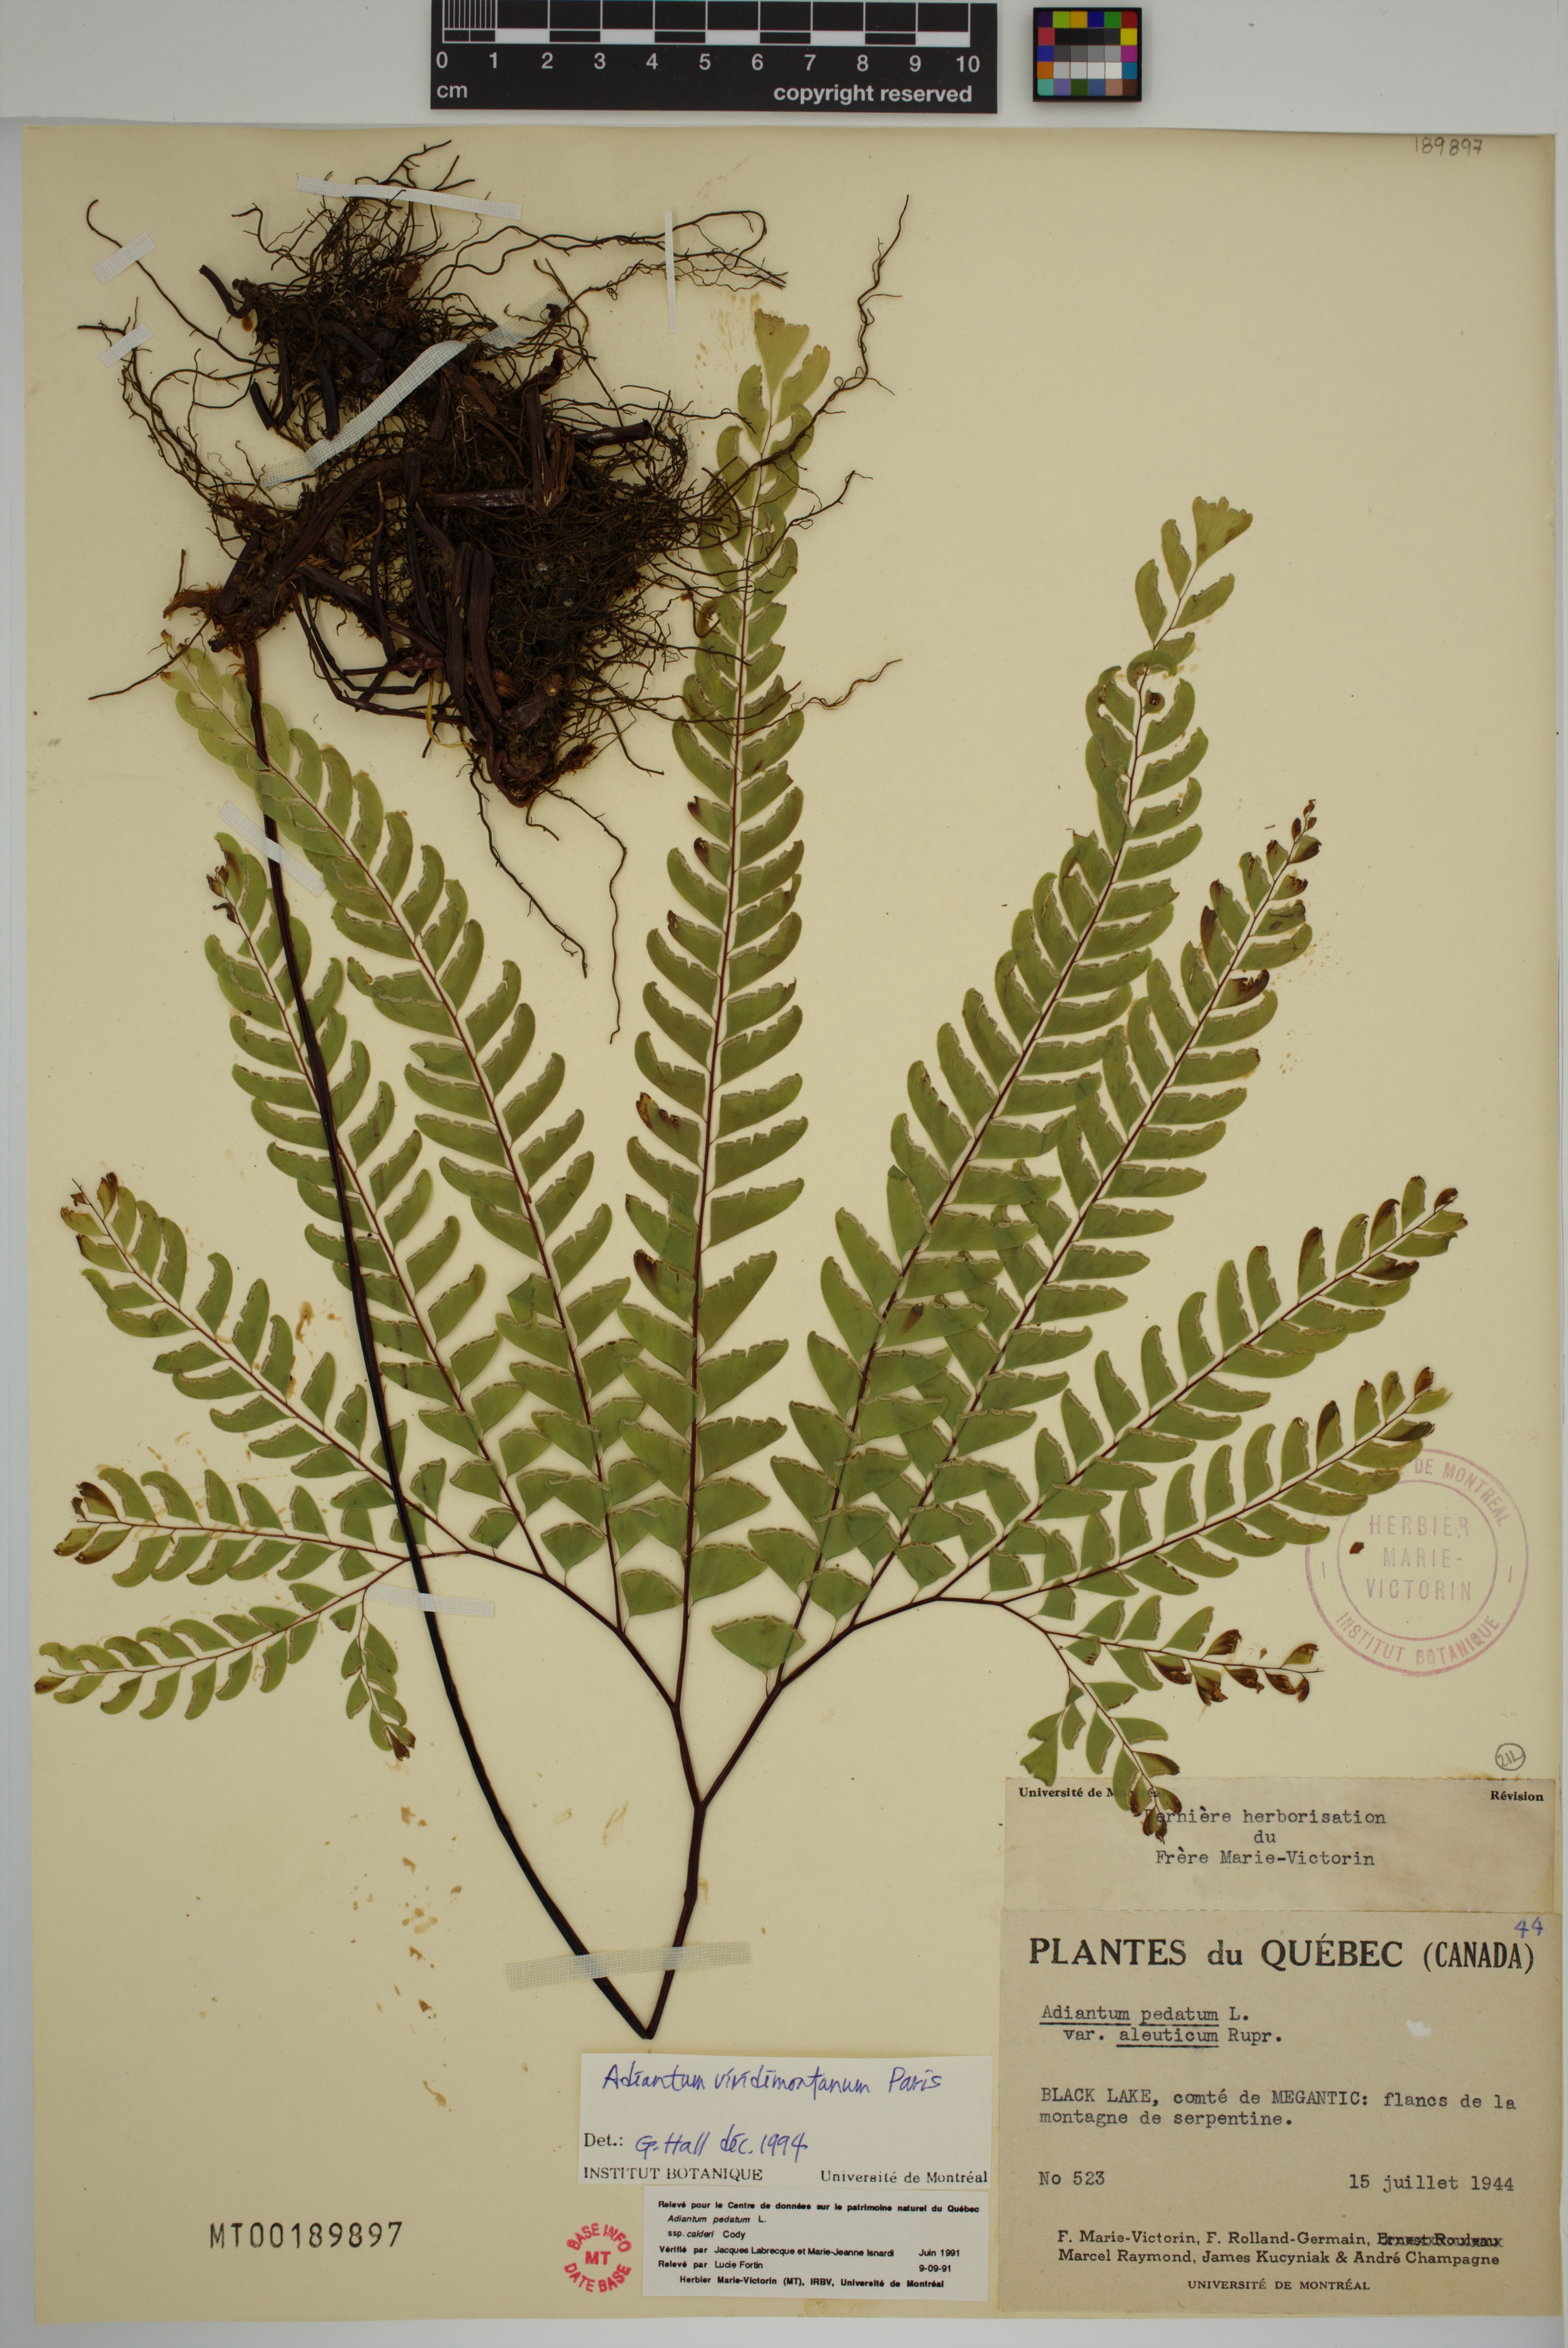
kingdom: Plantae
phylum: Tracheophyta
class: Polypodiopsida
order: Polypodiales
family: Pteridaceae
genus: Adiantum
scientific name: Adiantum viridimontanum
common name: Green mountain maidenhair
